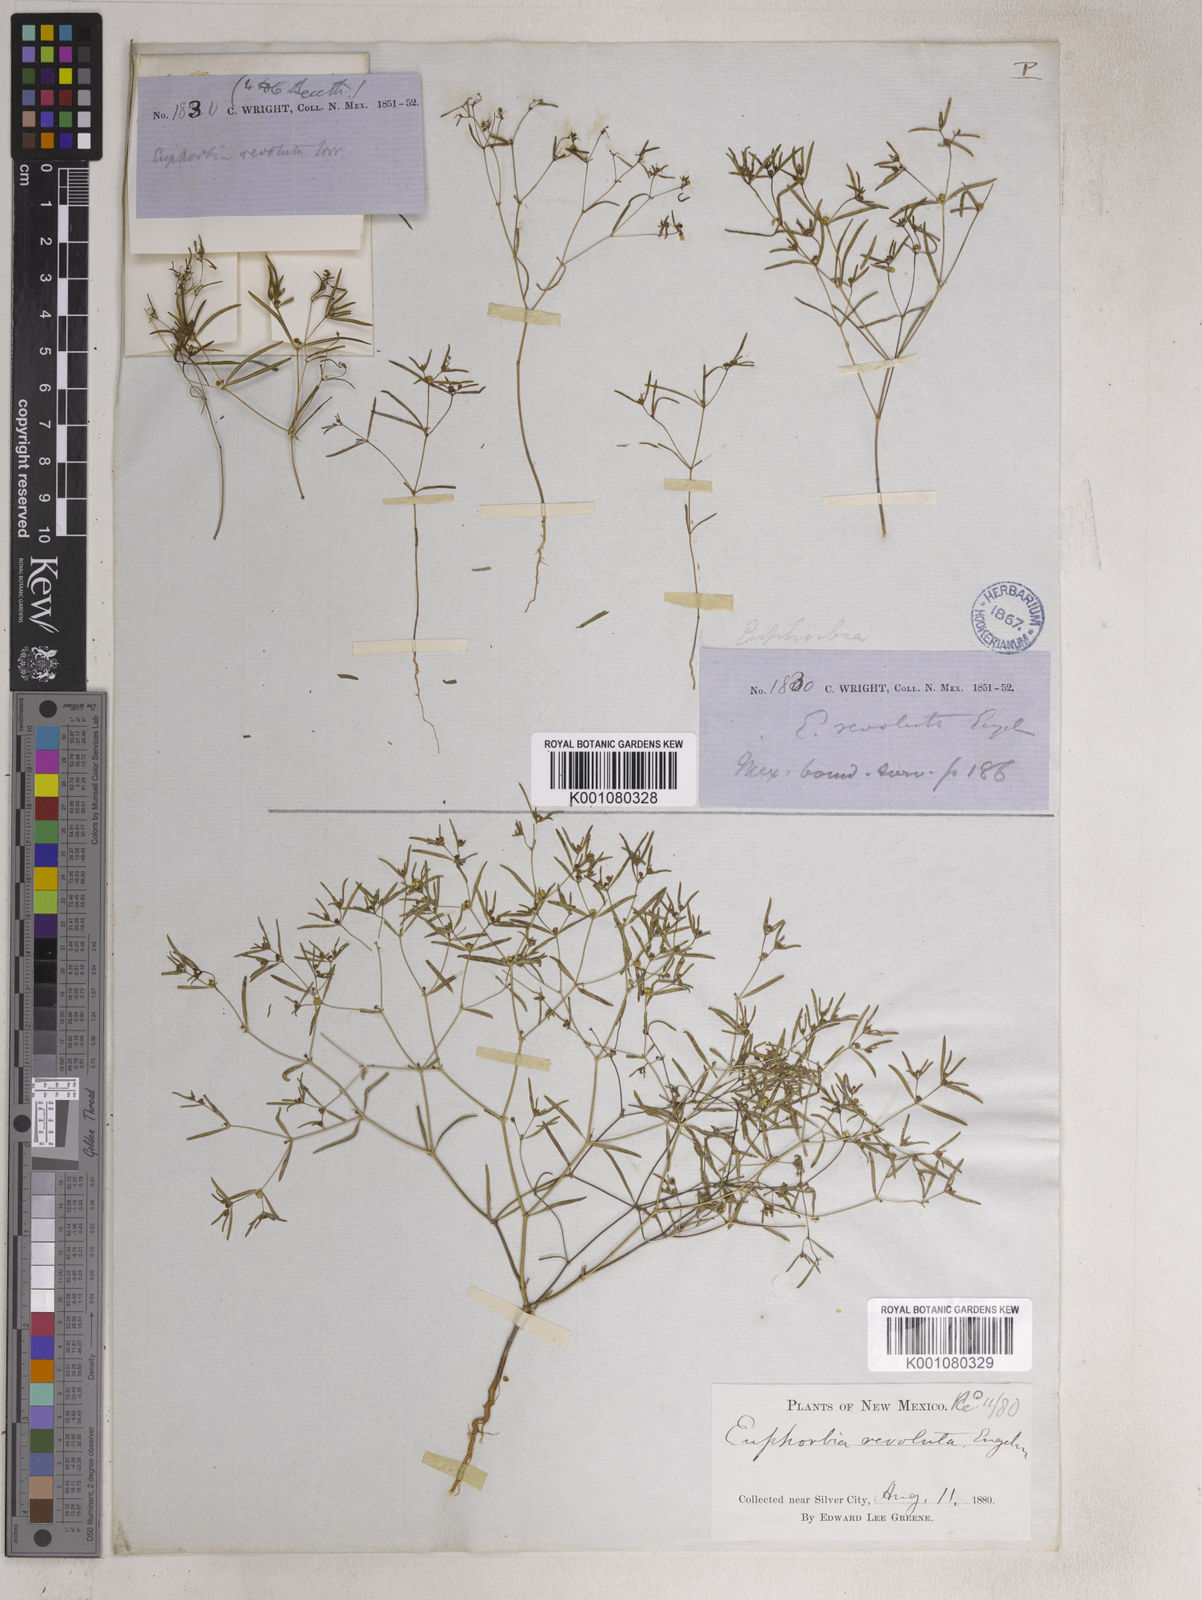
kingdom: Plantae
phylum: Tracheophyta
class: Magnoliopsida
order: Malpighiales
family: Euphorbiaceae
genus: Euphorbia
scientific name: Euphorbia revoluta
